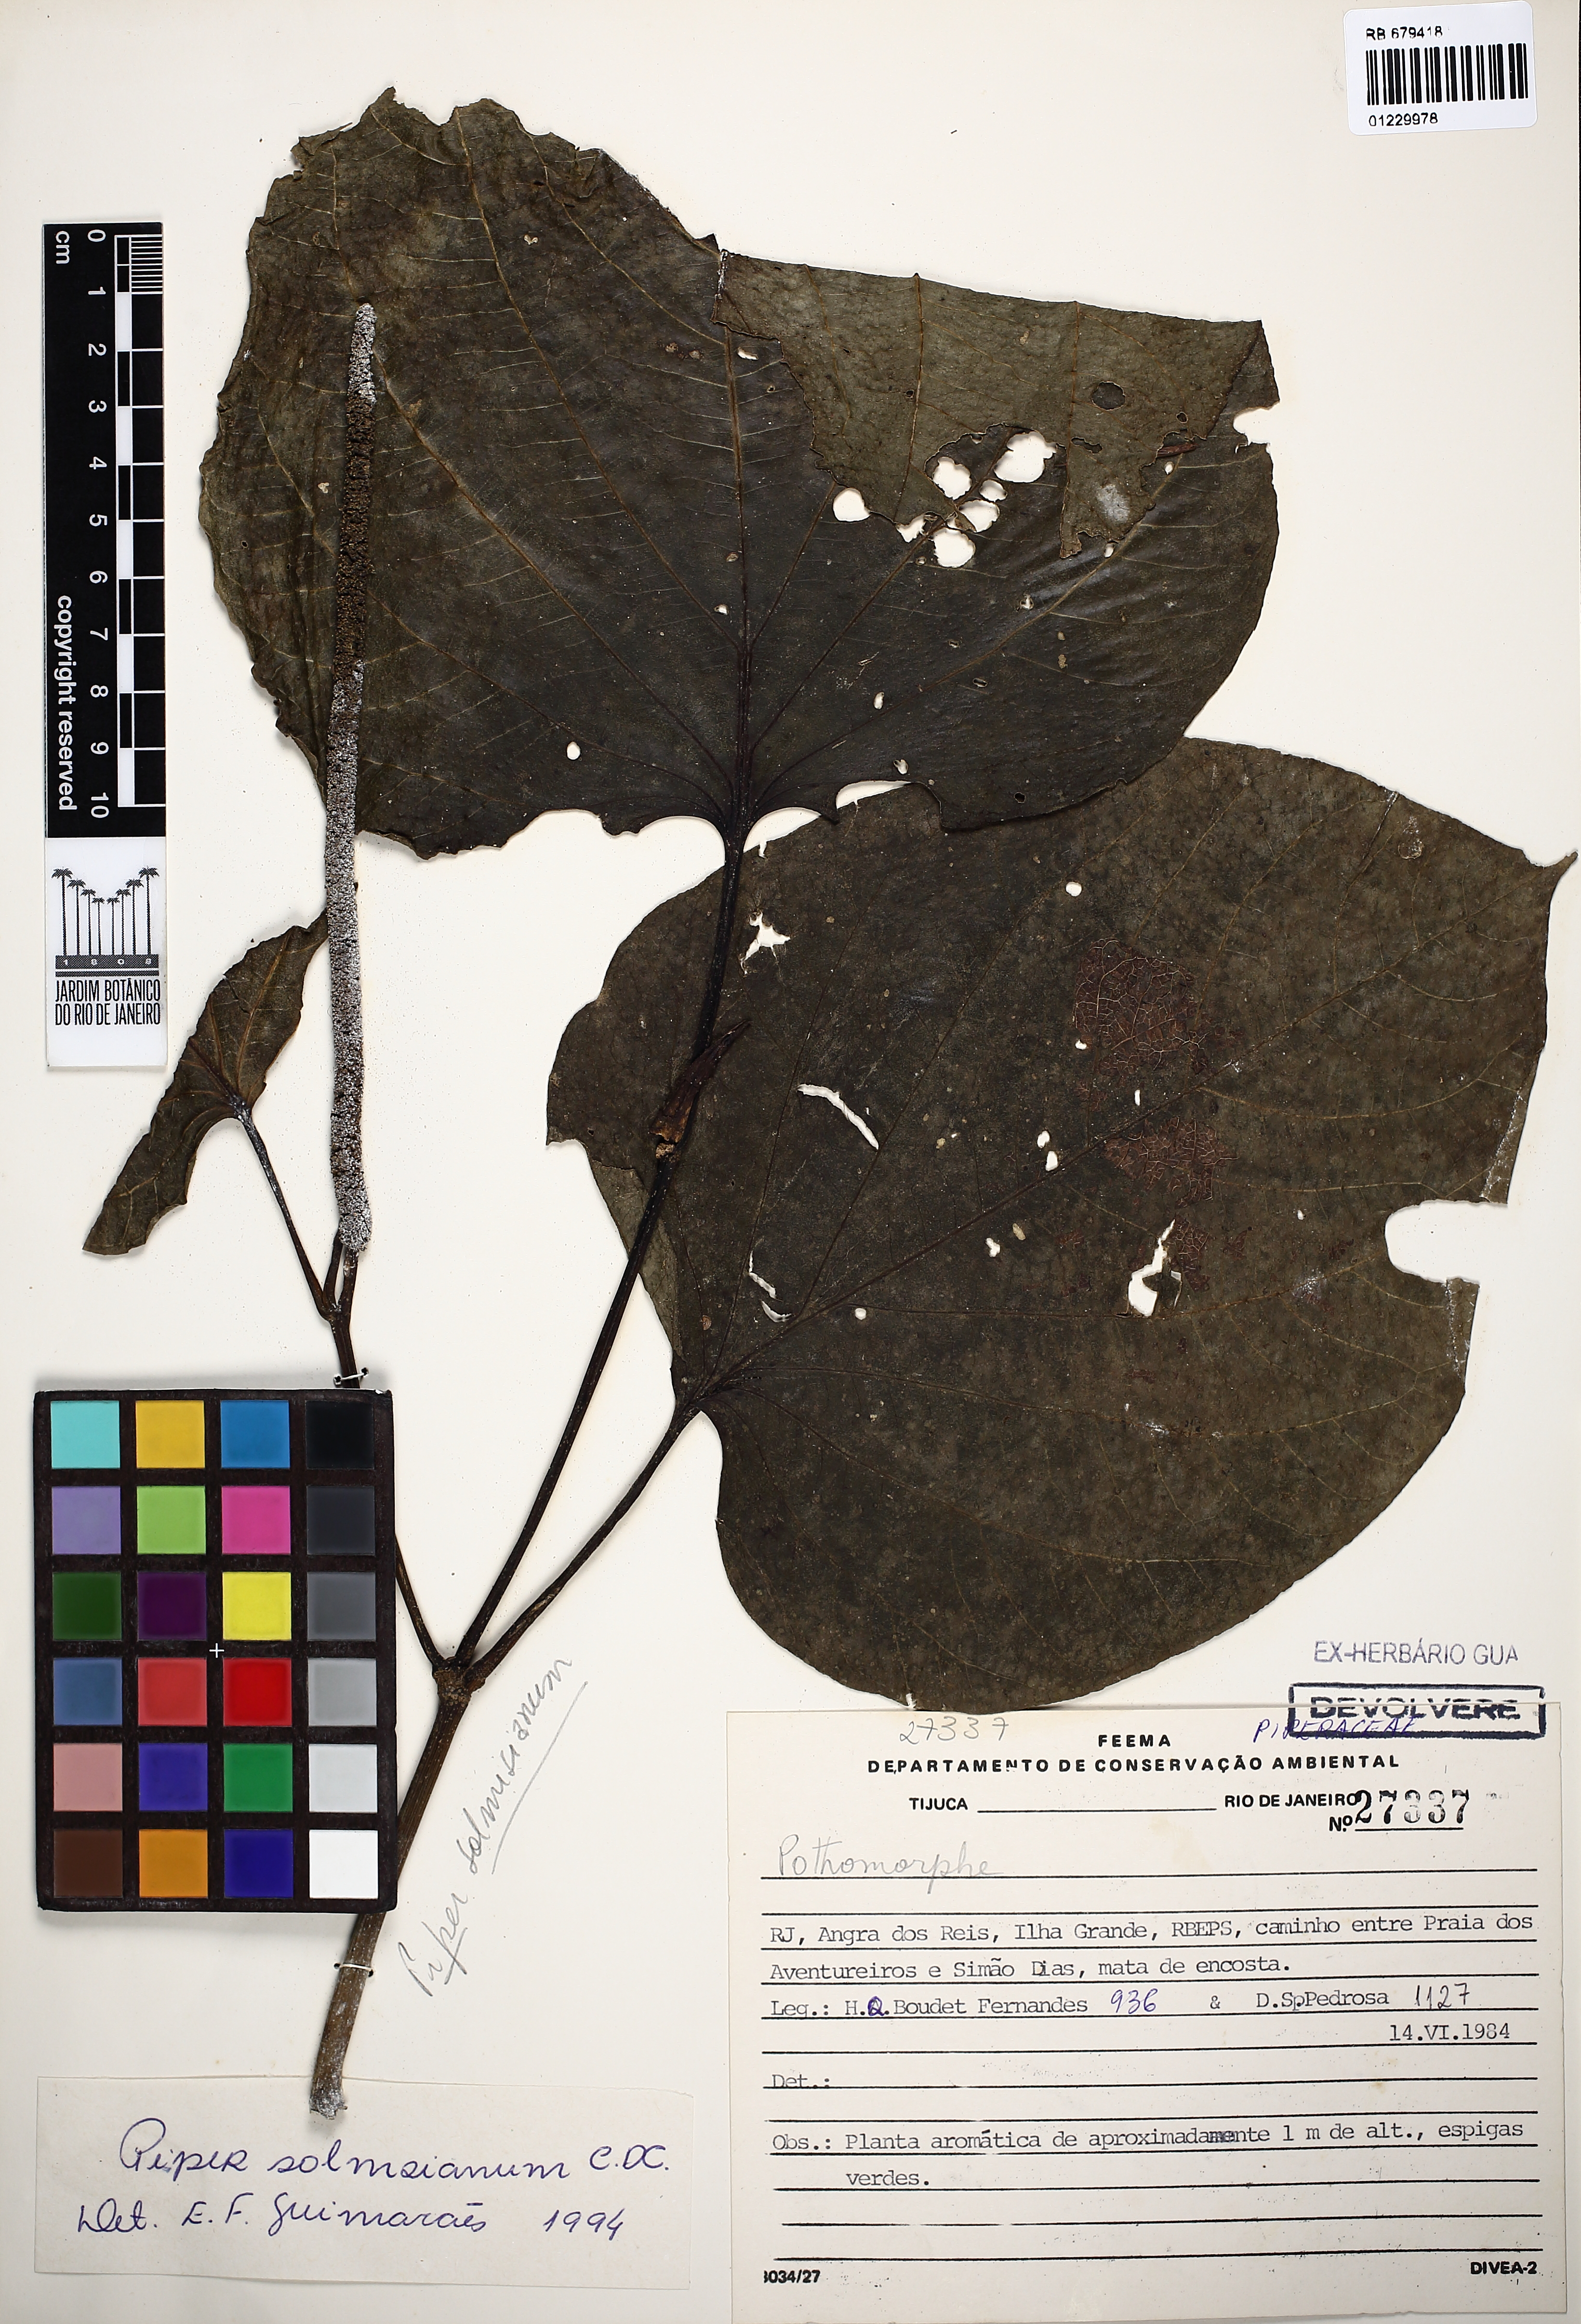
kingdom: Plantae
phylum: Tracheophyta
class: Magnoliopsida
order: Piperales
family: Piperaceae
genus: Piper
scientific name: Piper solmsianum
